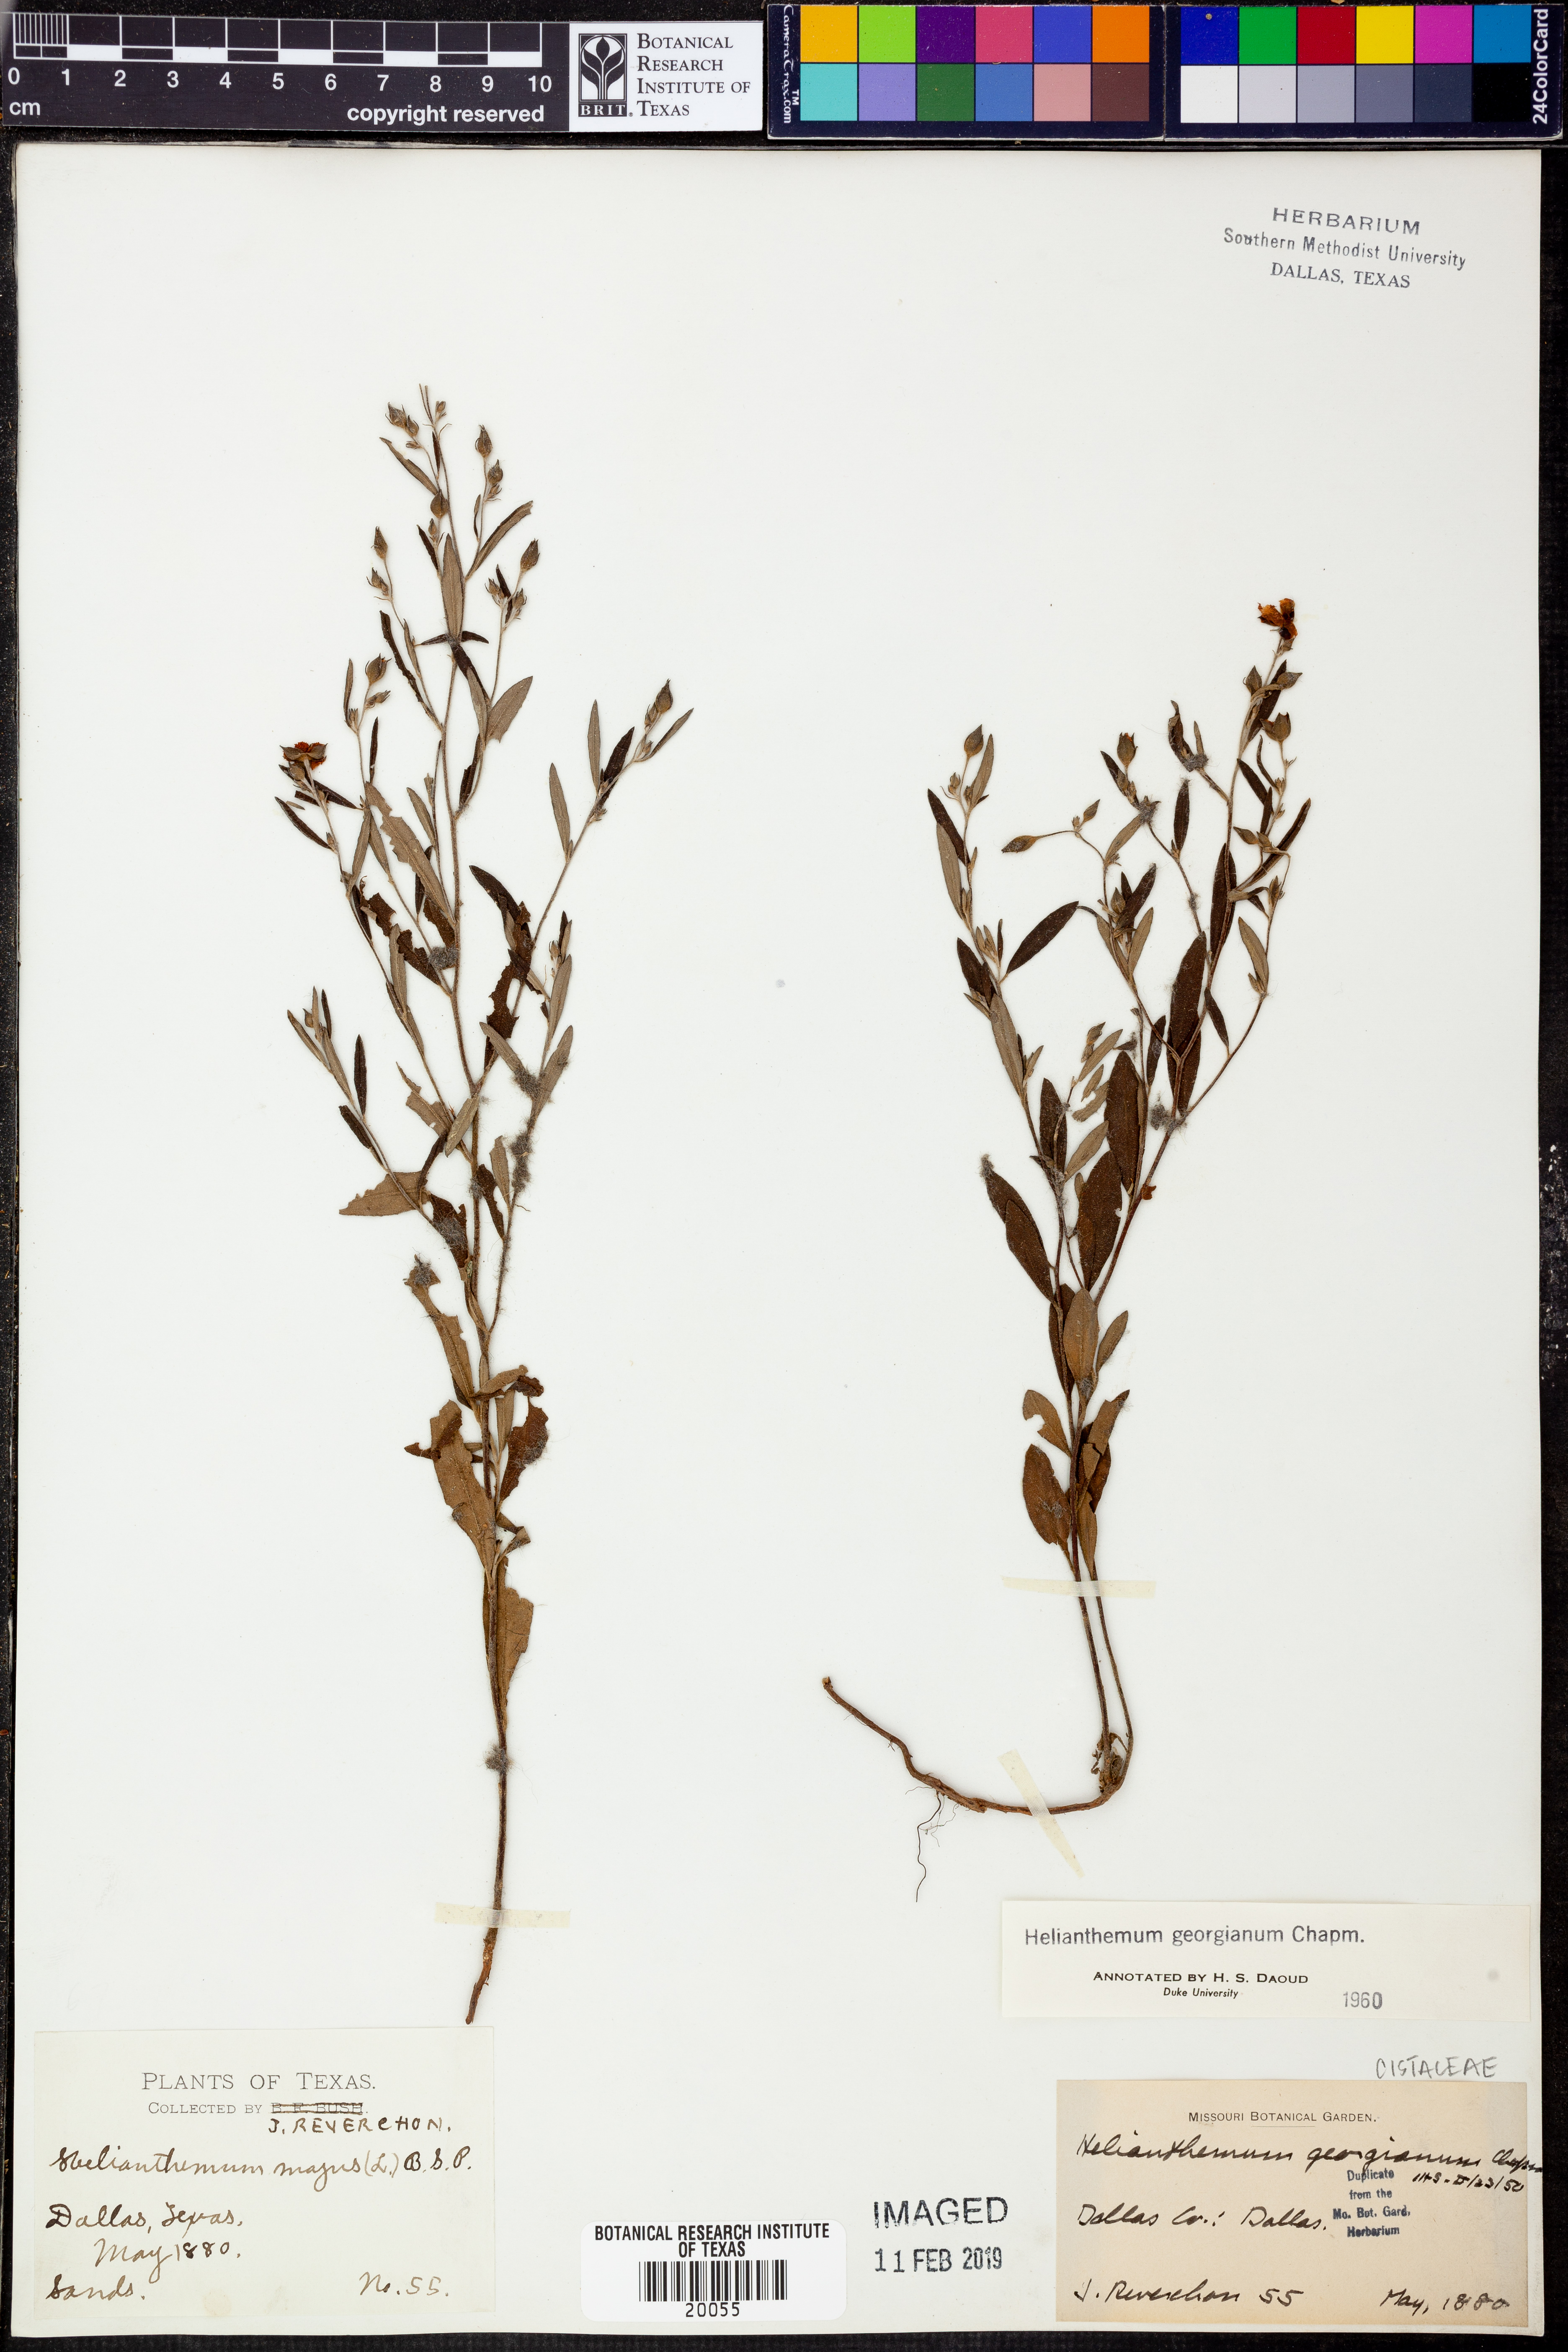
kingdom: Plantae
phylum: Tracheophyta
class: Magnoliopsida
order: Malvales
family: Cistaceae
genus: Crocanthemum
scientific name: Crocanthemum georgianum
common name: Georgia frostweed
